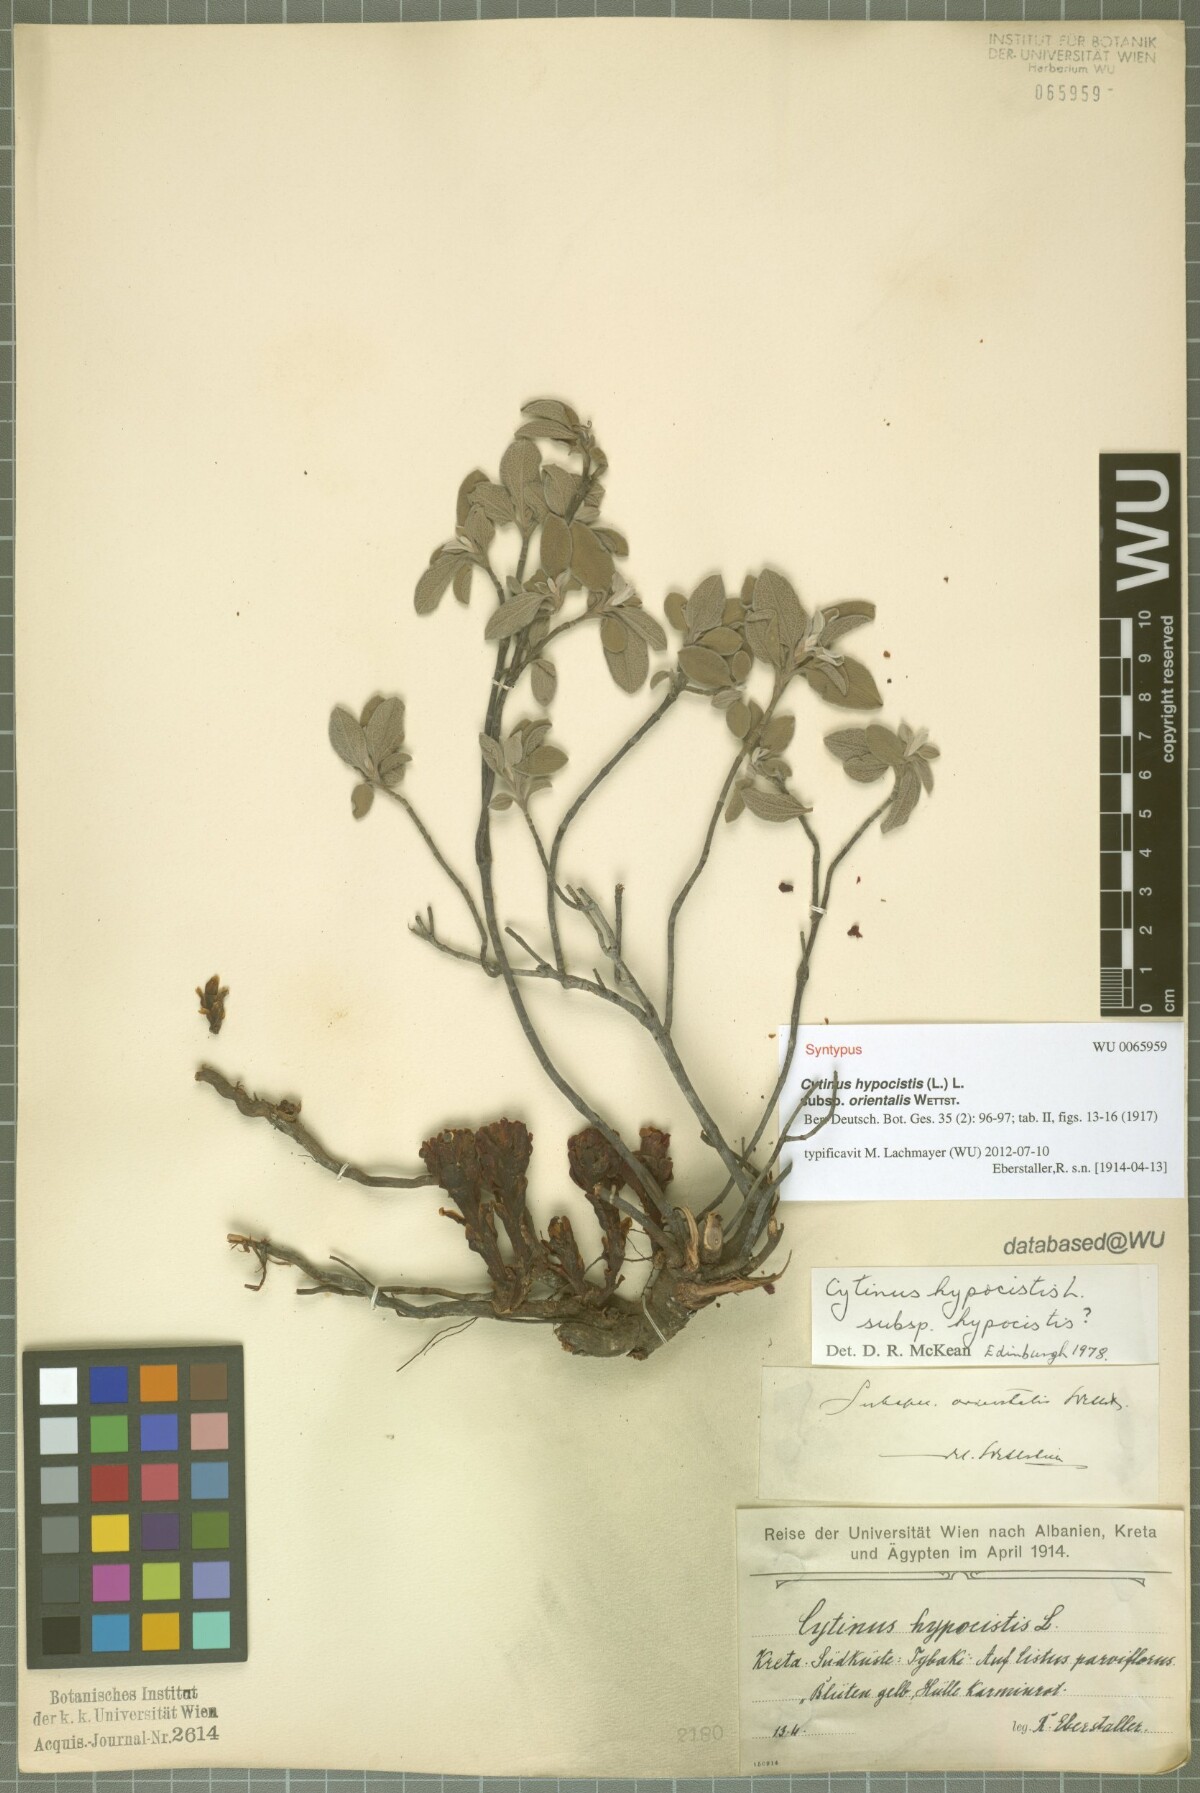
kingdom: Plantae
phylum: Tracheophyta
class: Magnoliopsida
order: Malvales
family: Cytinaceae
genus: Cytinus
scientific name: Cytinus ruber
